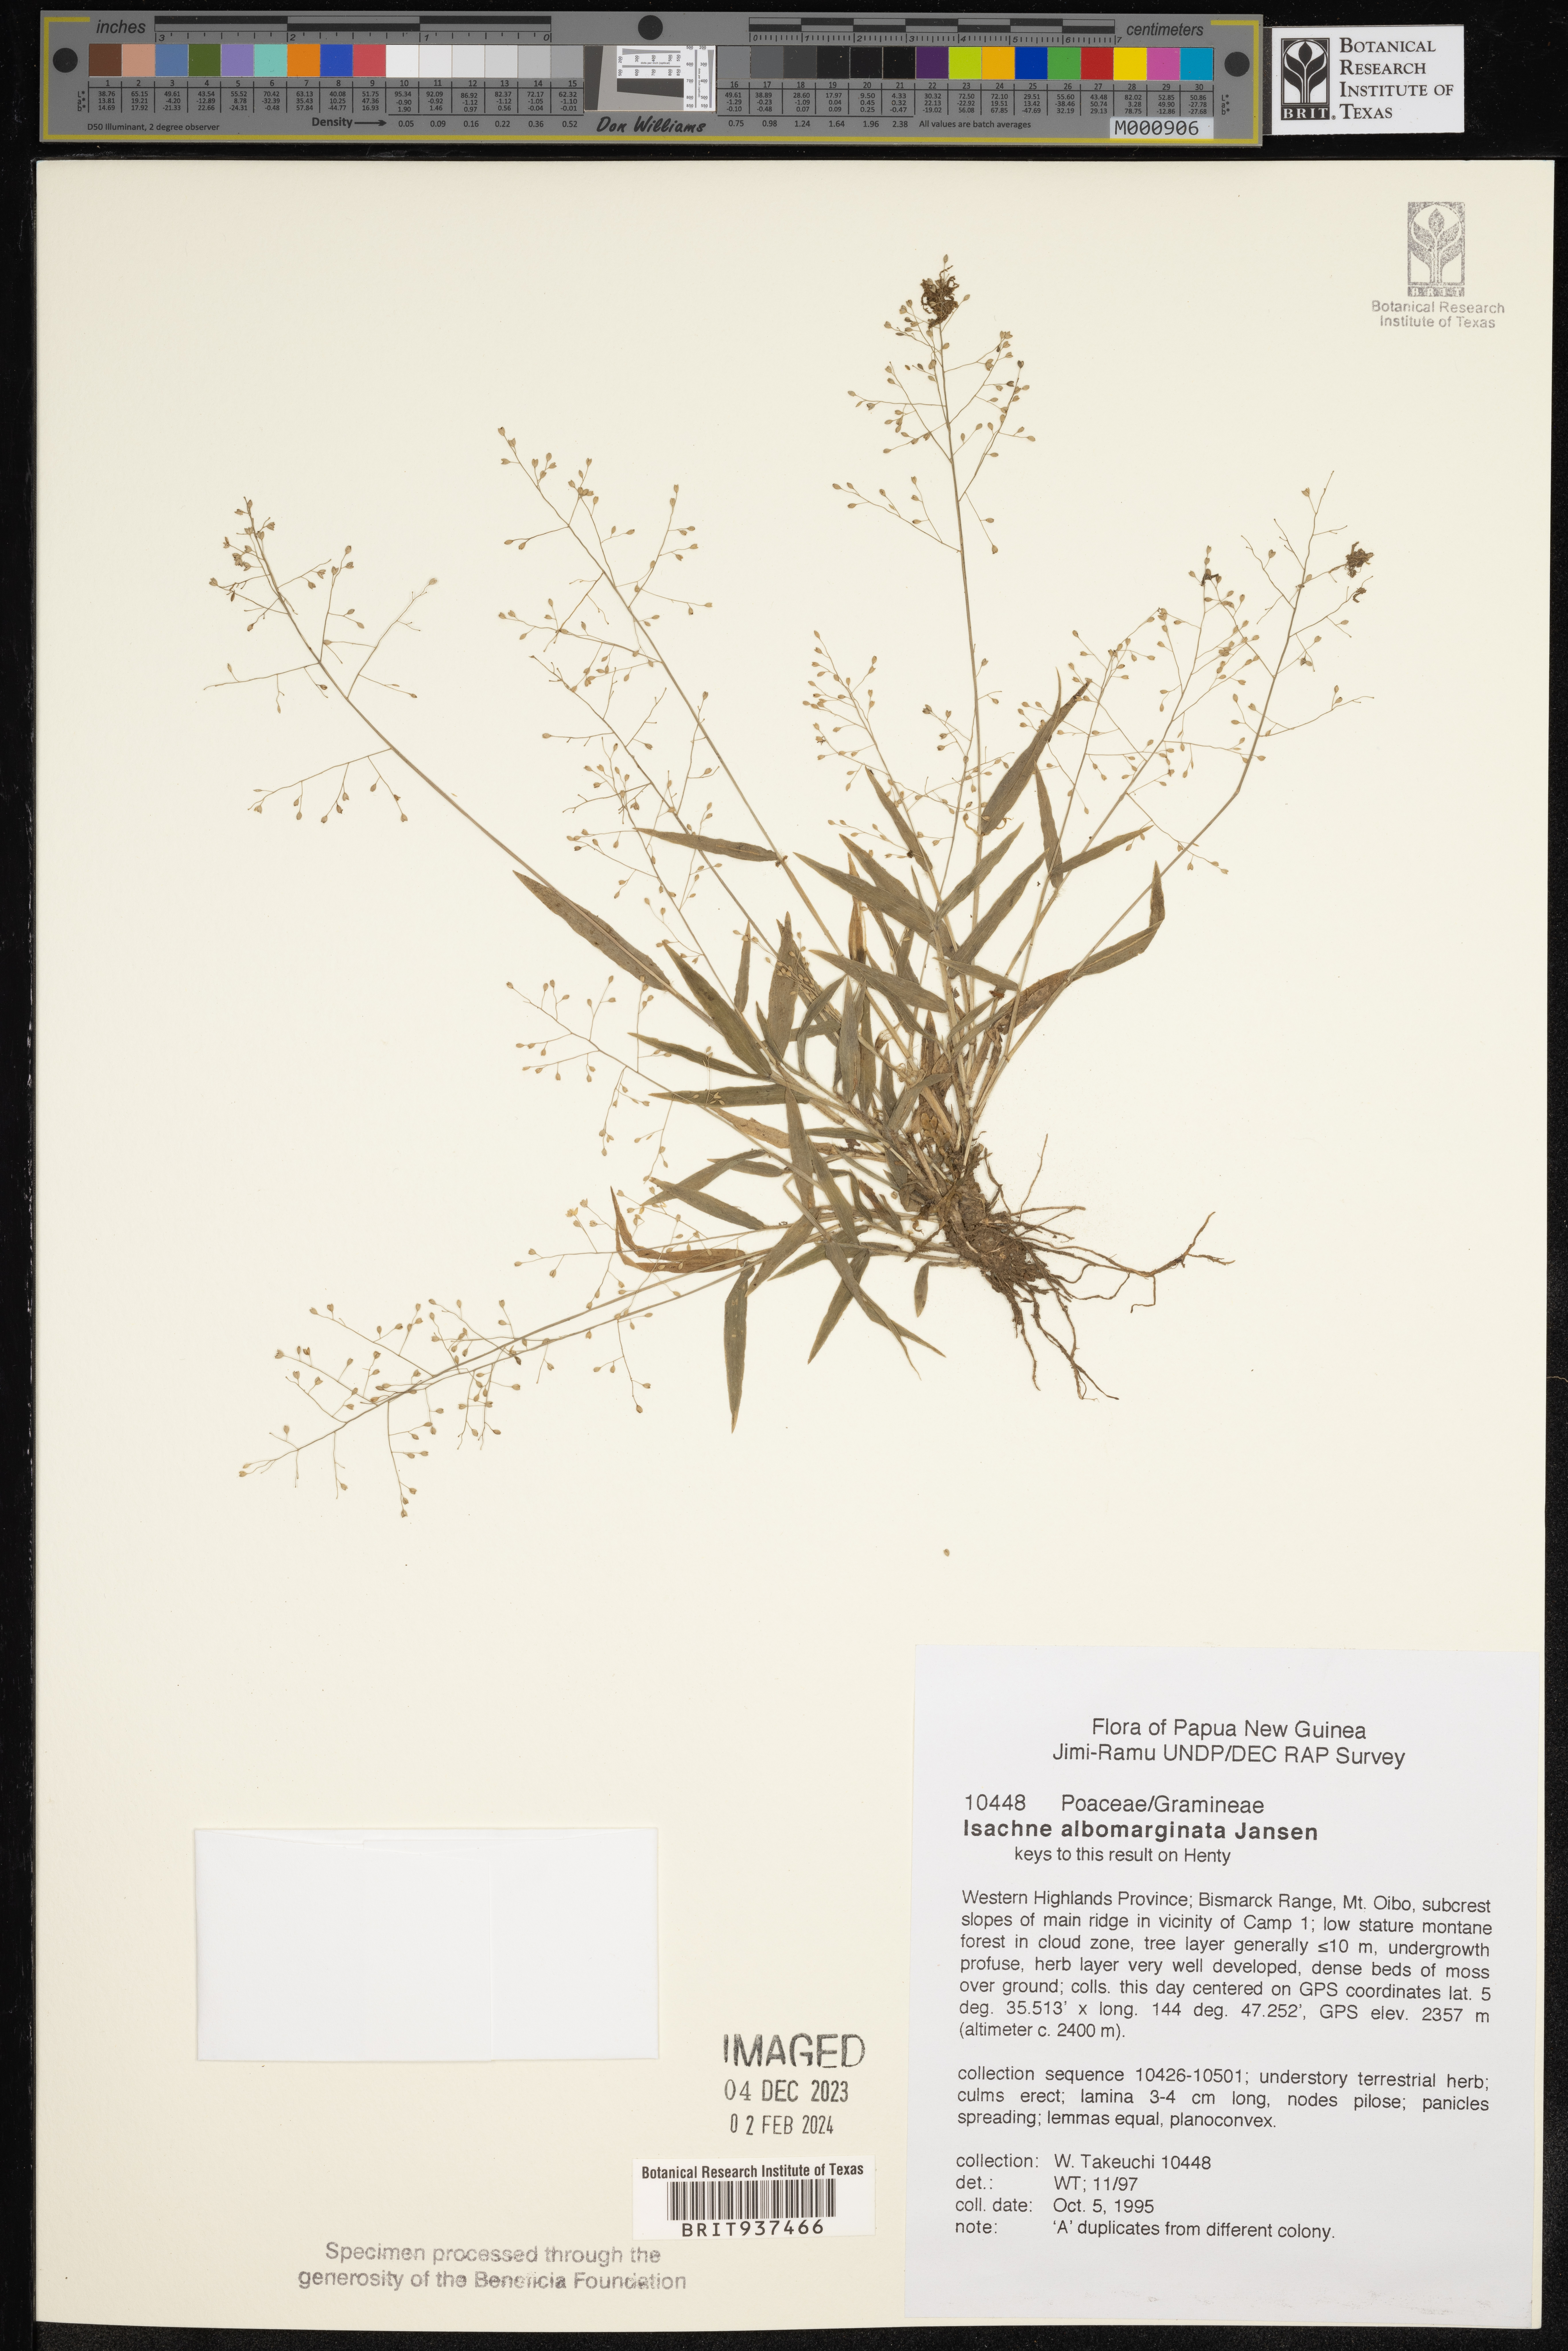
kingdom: Plantae
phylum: Tracheophyta
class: Liliopsida
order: Poales
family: Poaceae
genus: Isachne
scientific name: Isachne
